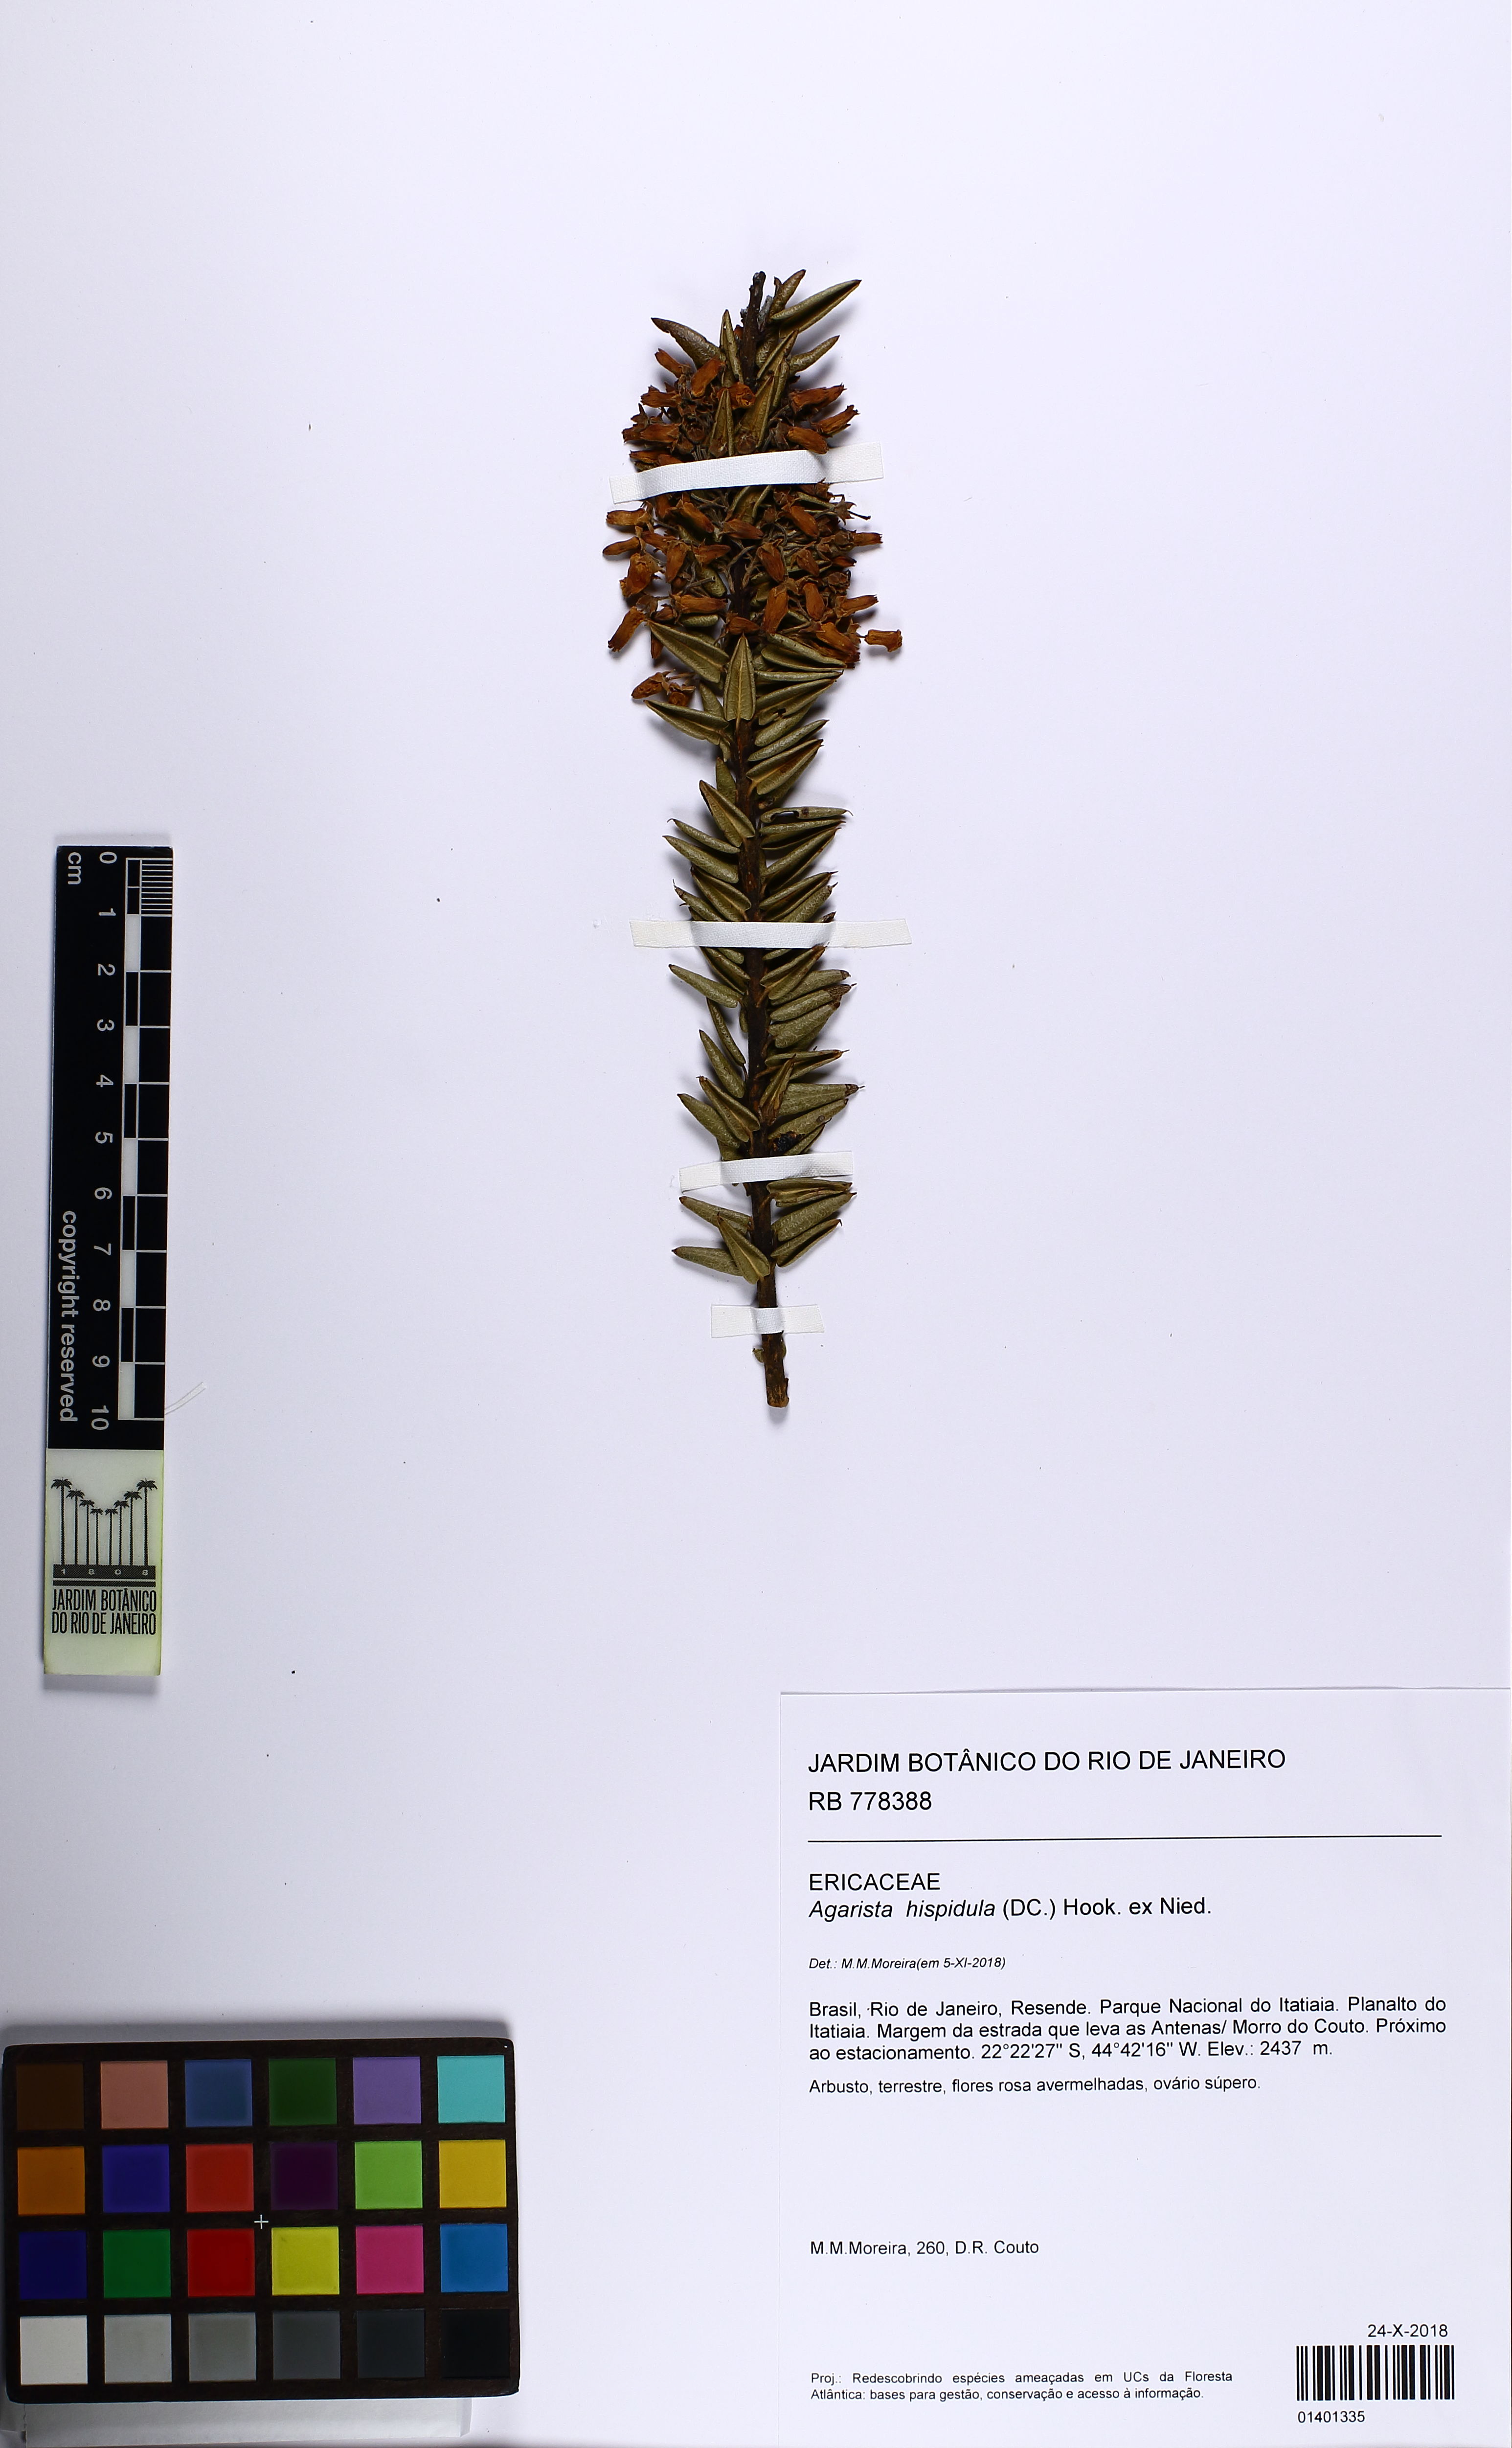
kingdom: Plantae
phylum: Tracheophyta
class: Magnoliopsida
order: Ericales
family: Ericaceae
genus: Agarista
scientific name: Agarista hispidula
